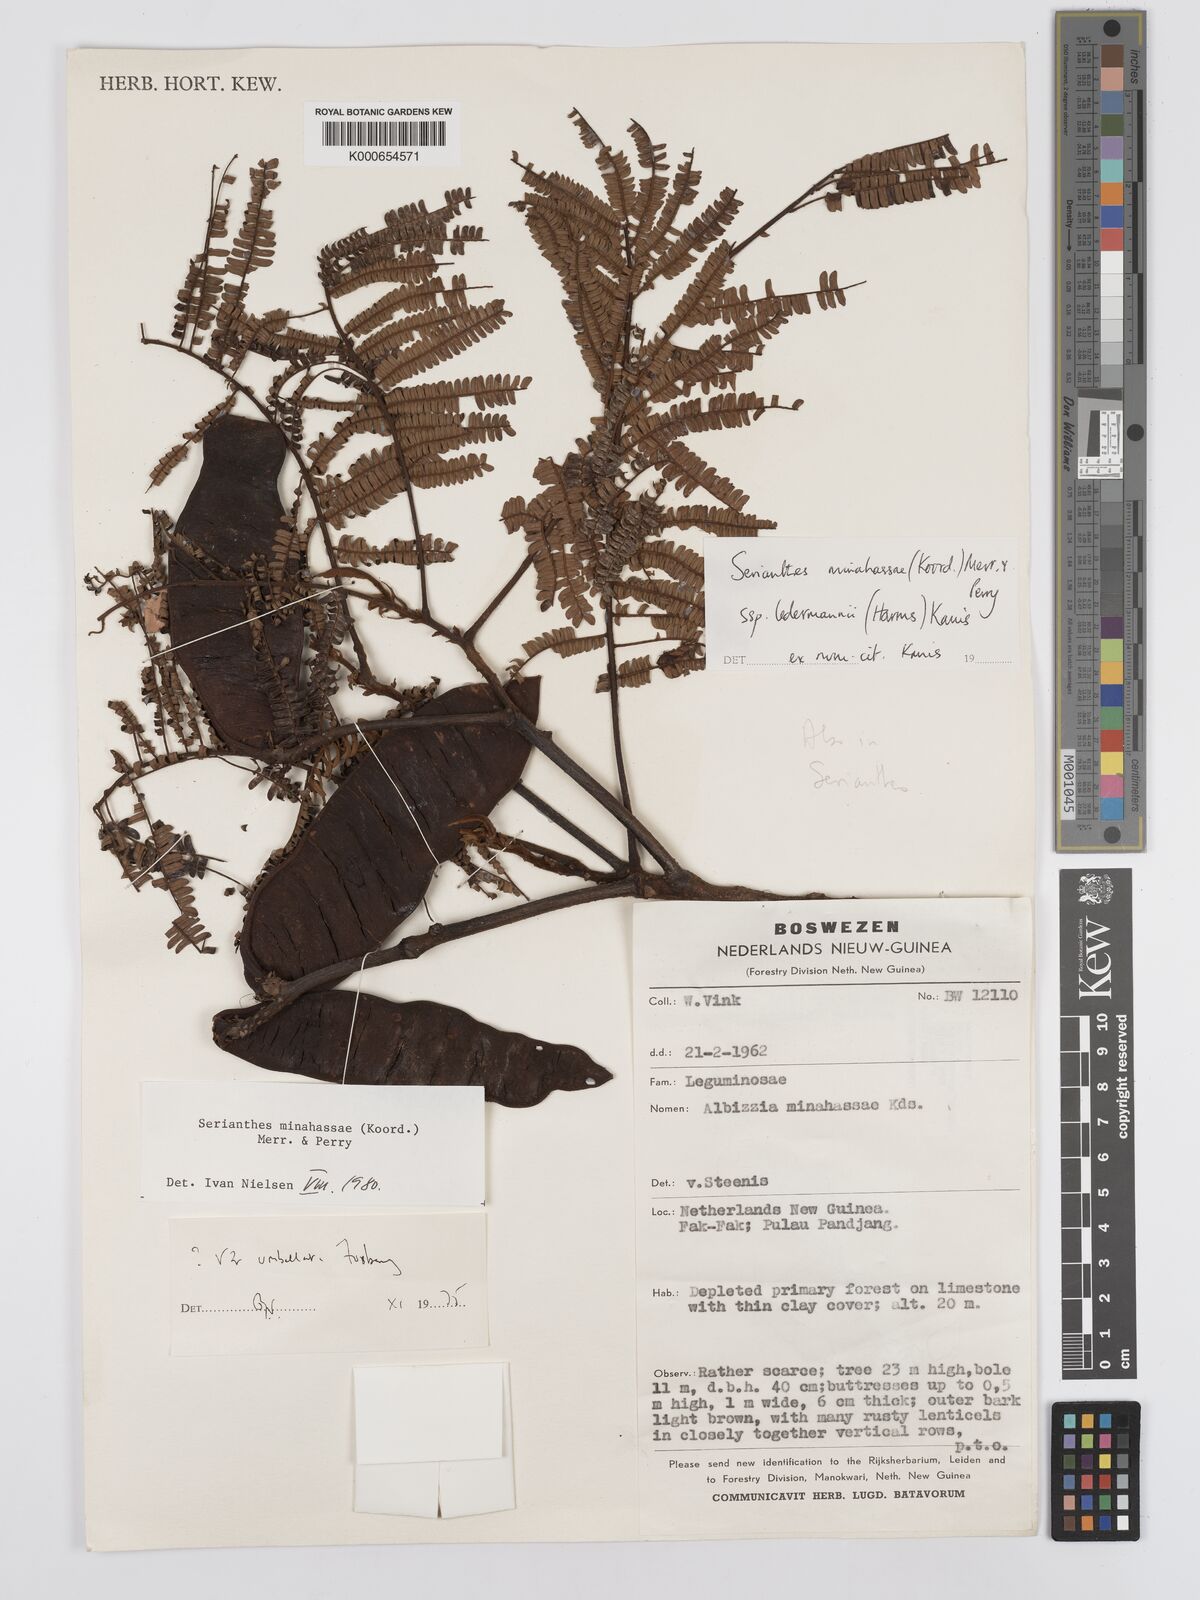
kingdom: Plantae
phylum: Tracheophyta
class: Magnoliopsida
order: Fabales
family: Fabaceae
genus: Serianthes
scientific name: Serianthes minahassae
